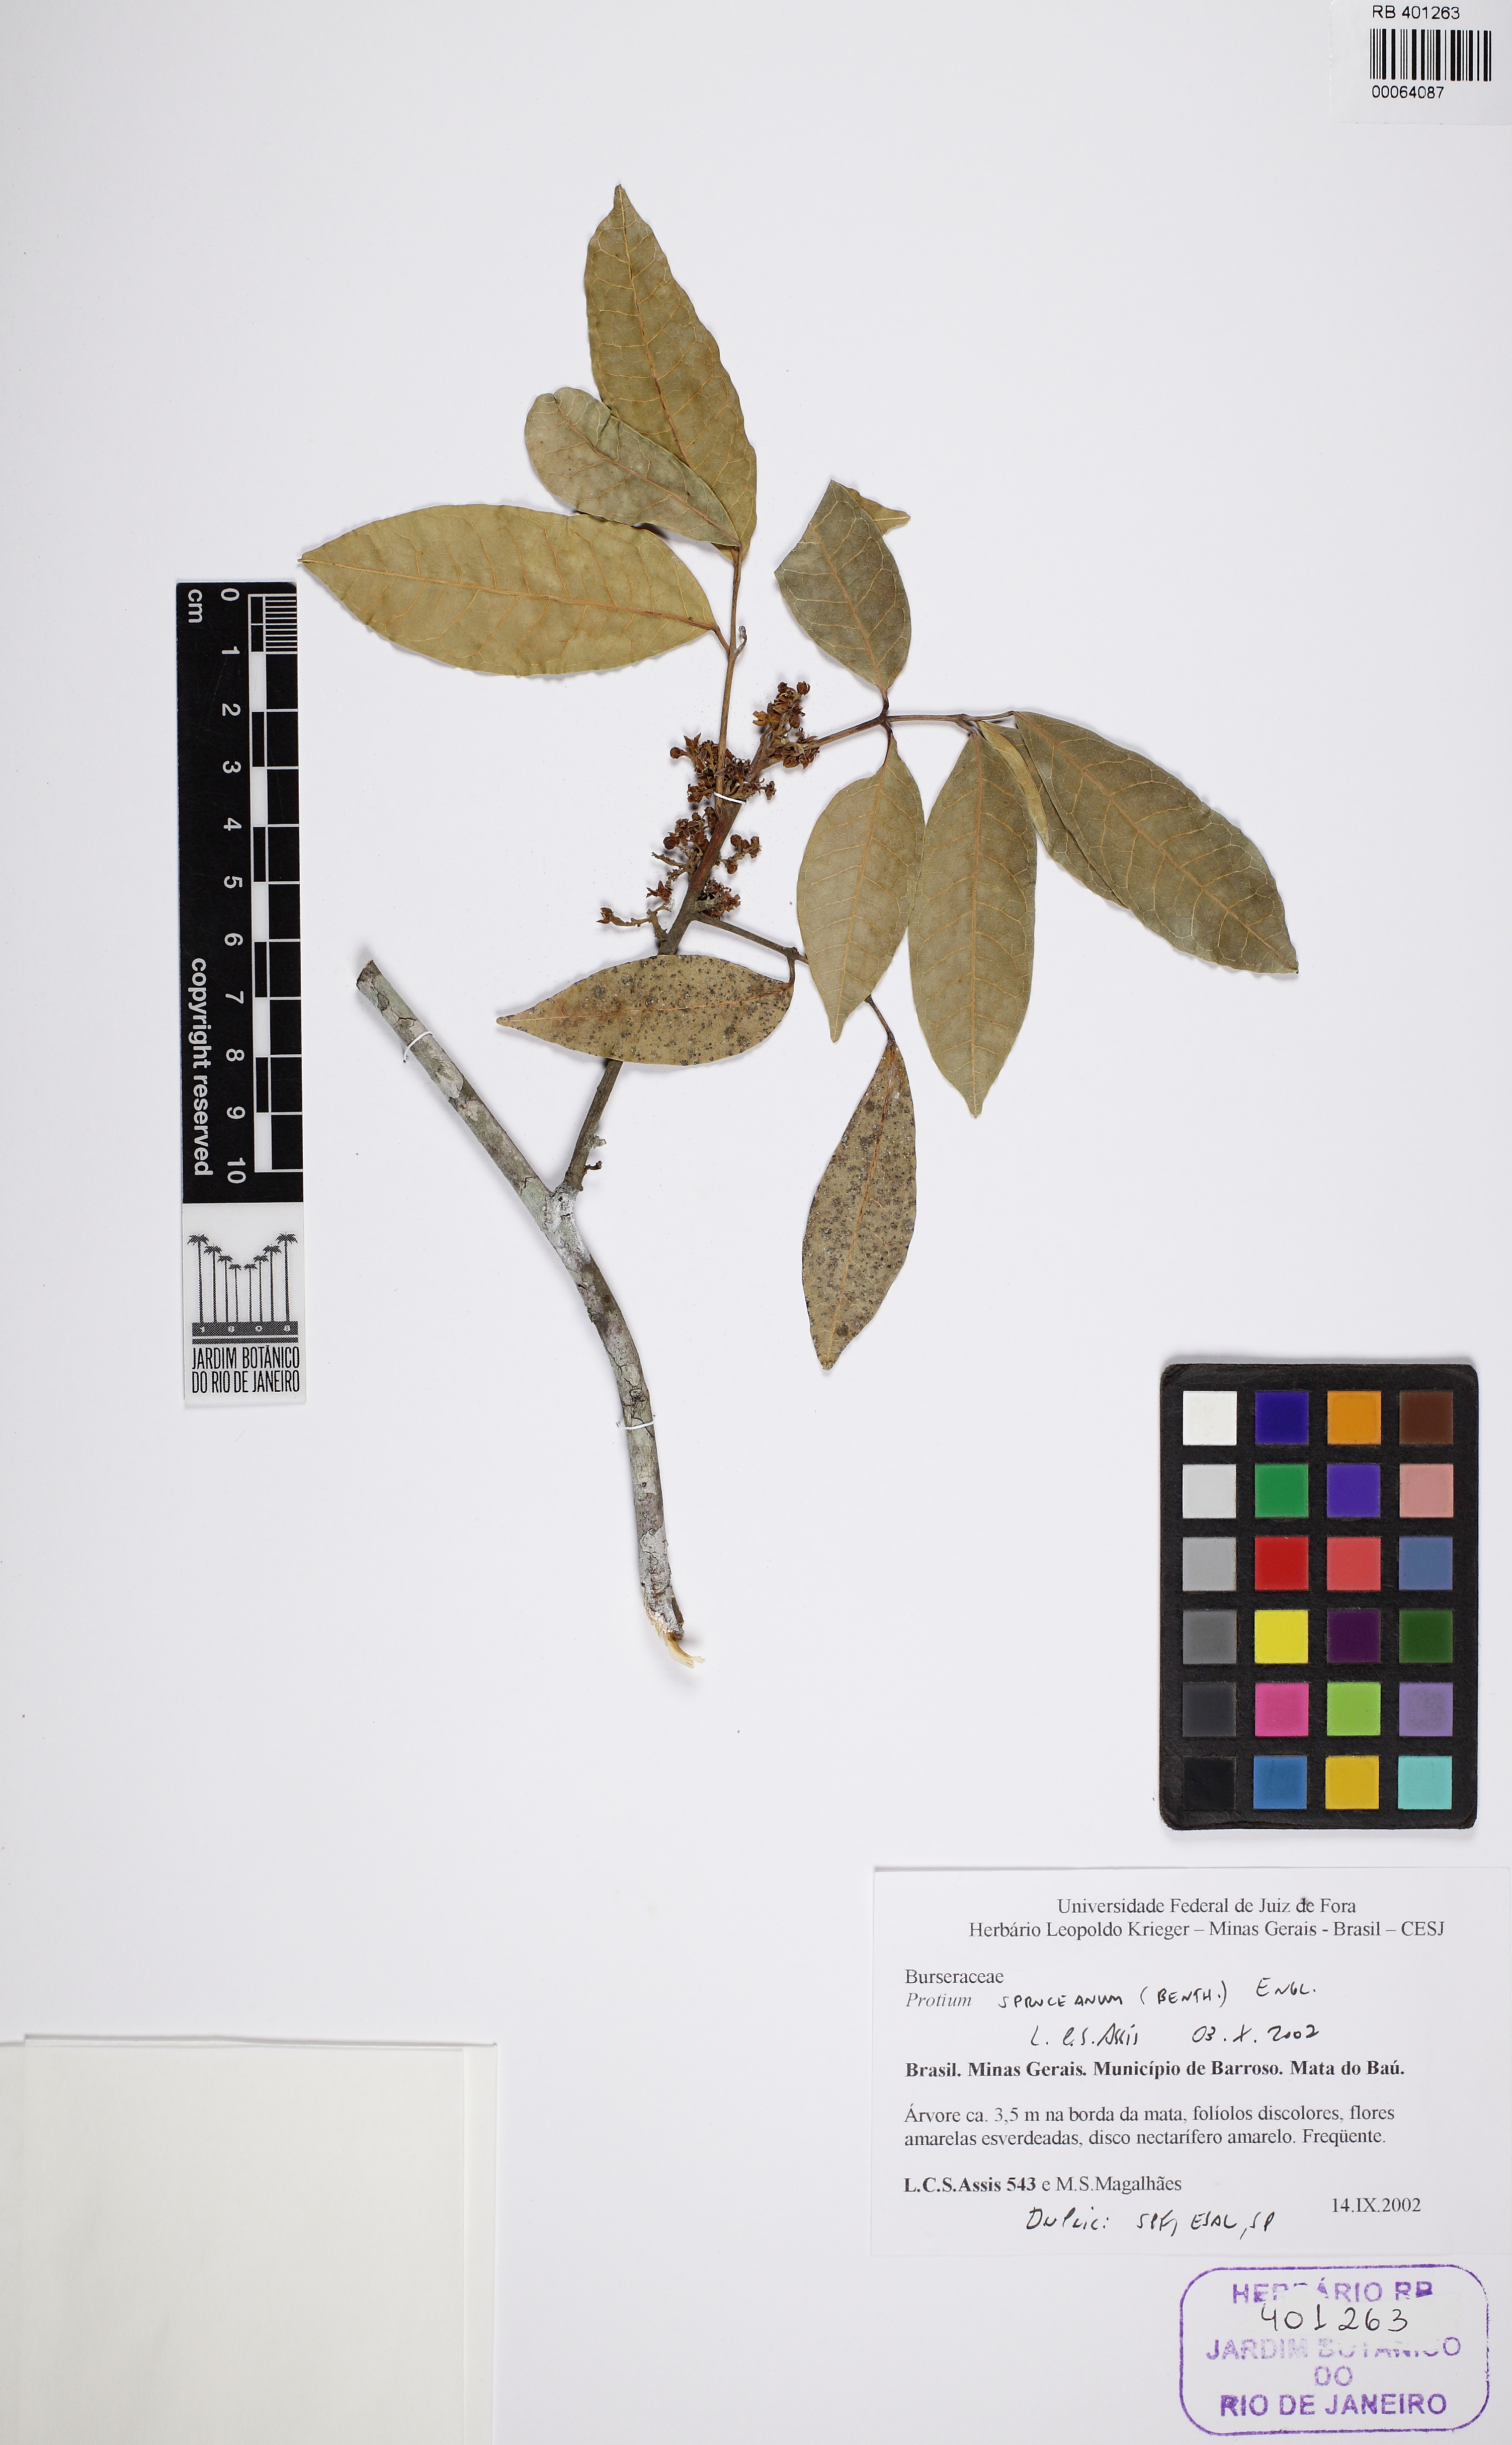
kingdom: Plantae
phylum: Tracheophyta
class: Magnoliopsida
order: Sapindales
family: Burseraceae
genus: Protium
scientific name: Protium spruceanum
